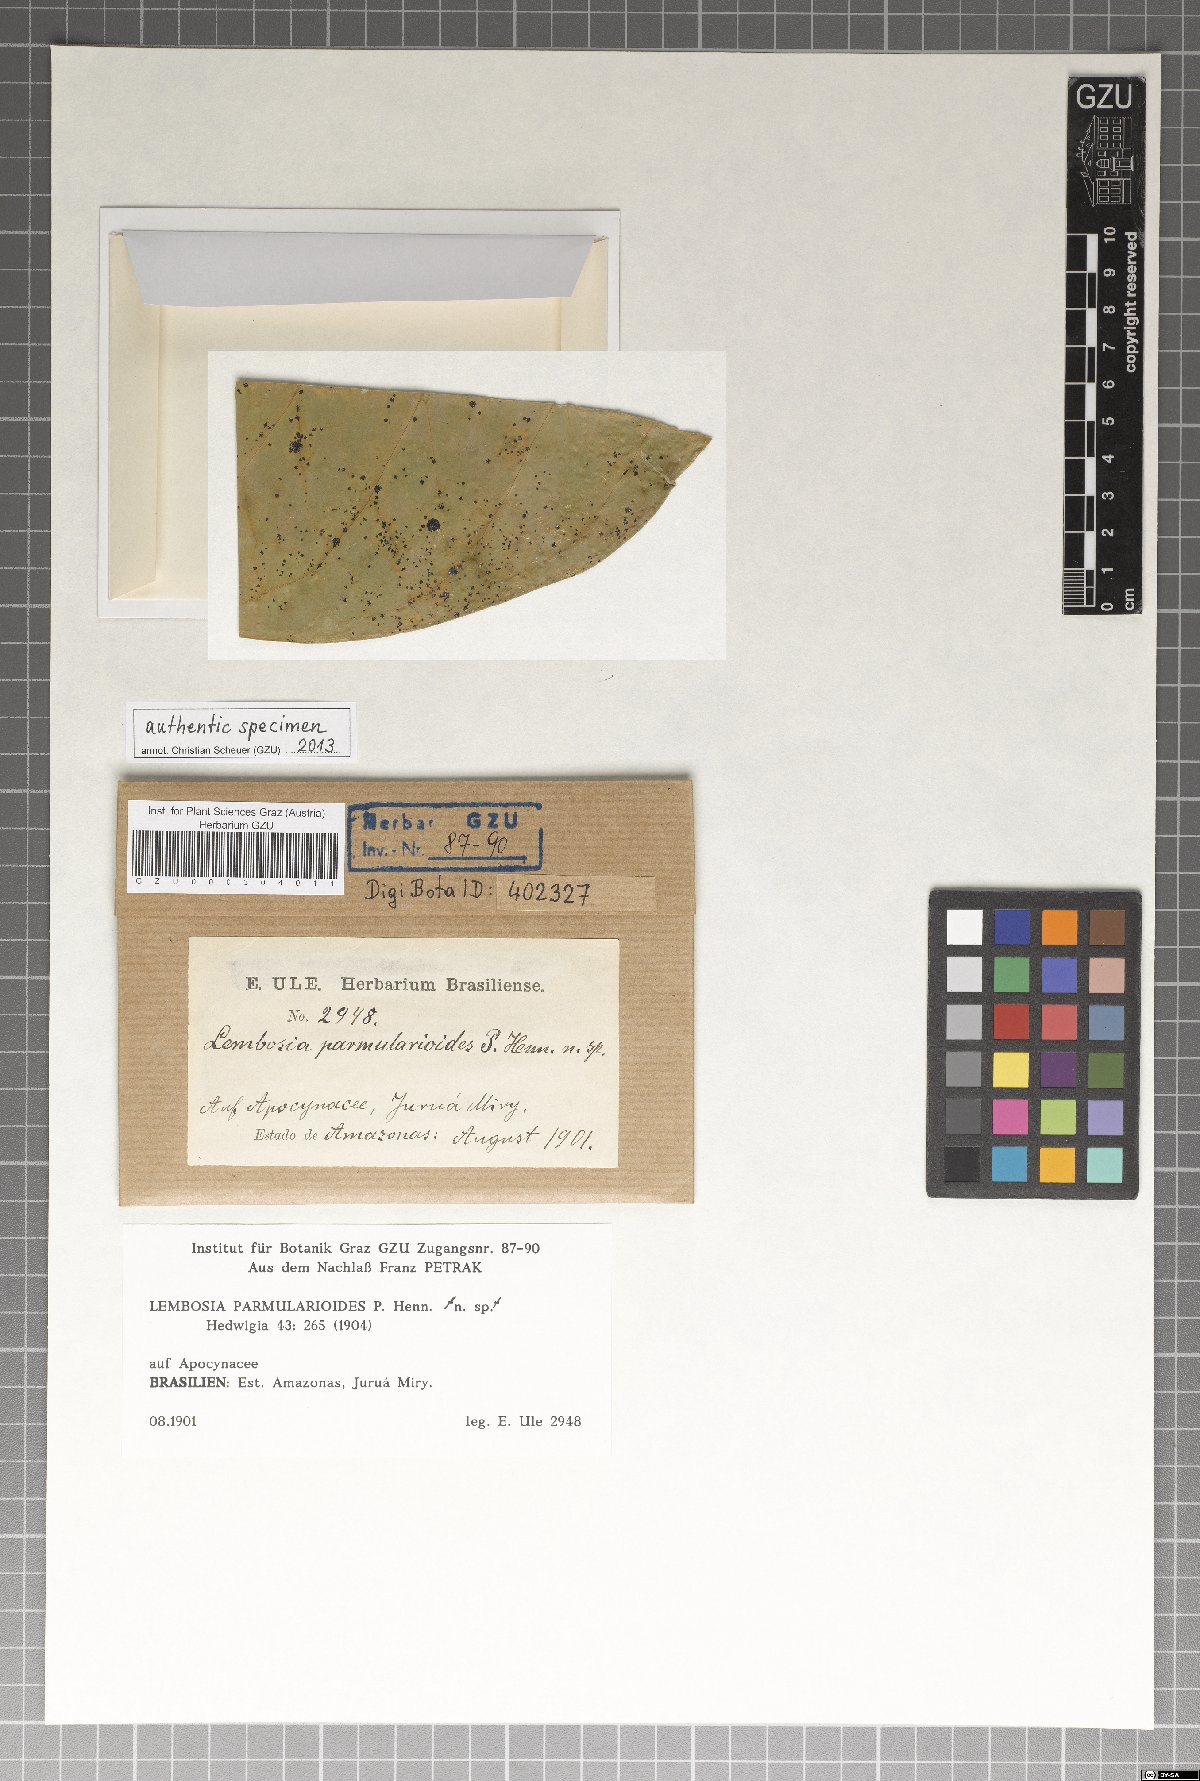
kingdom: Fungi
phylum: Ascomycota
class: Dothideomycetes
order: Asterinales
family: Asterinaceae
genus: Lembosia
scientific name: Lembosia parmularioides
